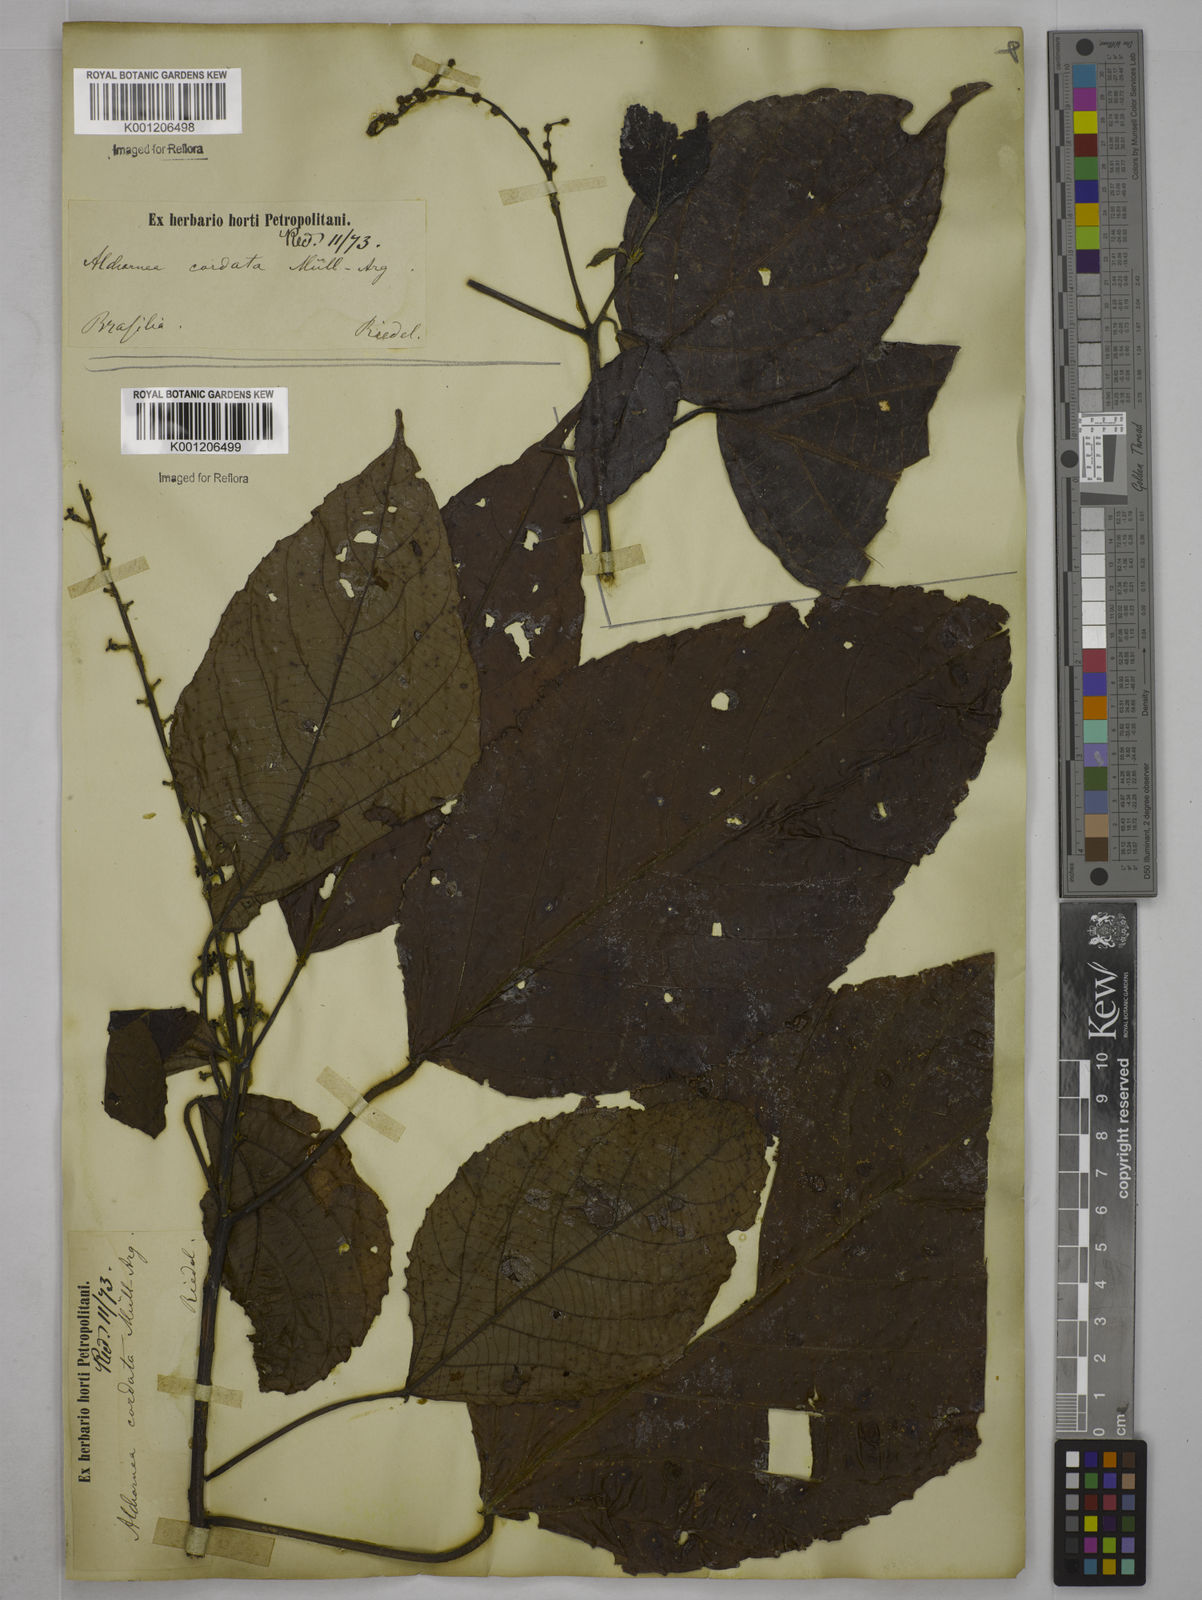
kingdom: Plantae
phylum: Tracheophyta
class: Magnoliopsida
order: Malpighiales
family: Euphorbiaceae
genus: Aparisthmium
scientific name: Aparisthmium cordatum
